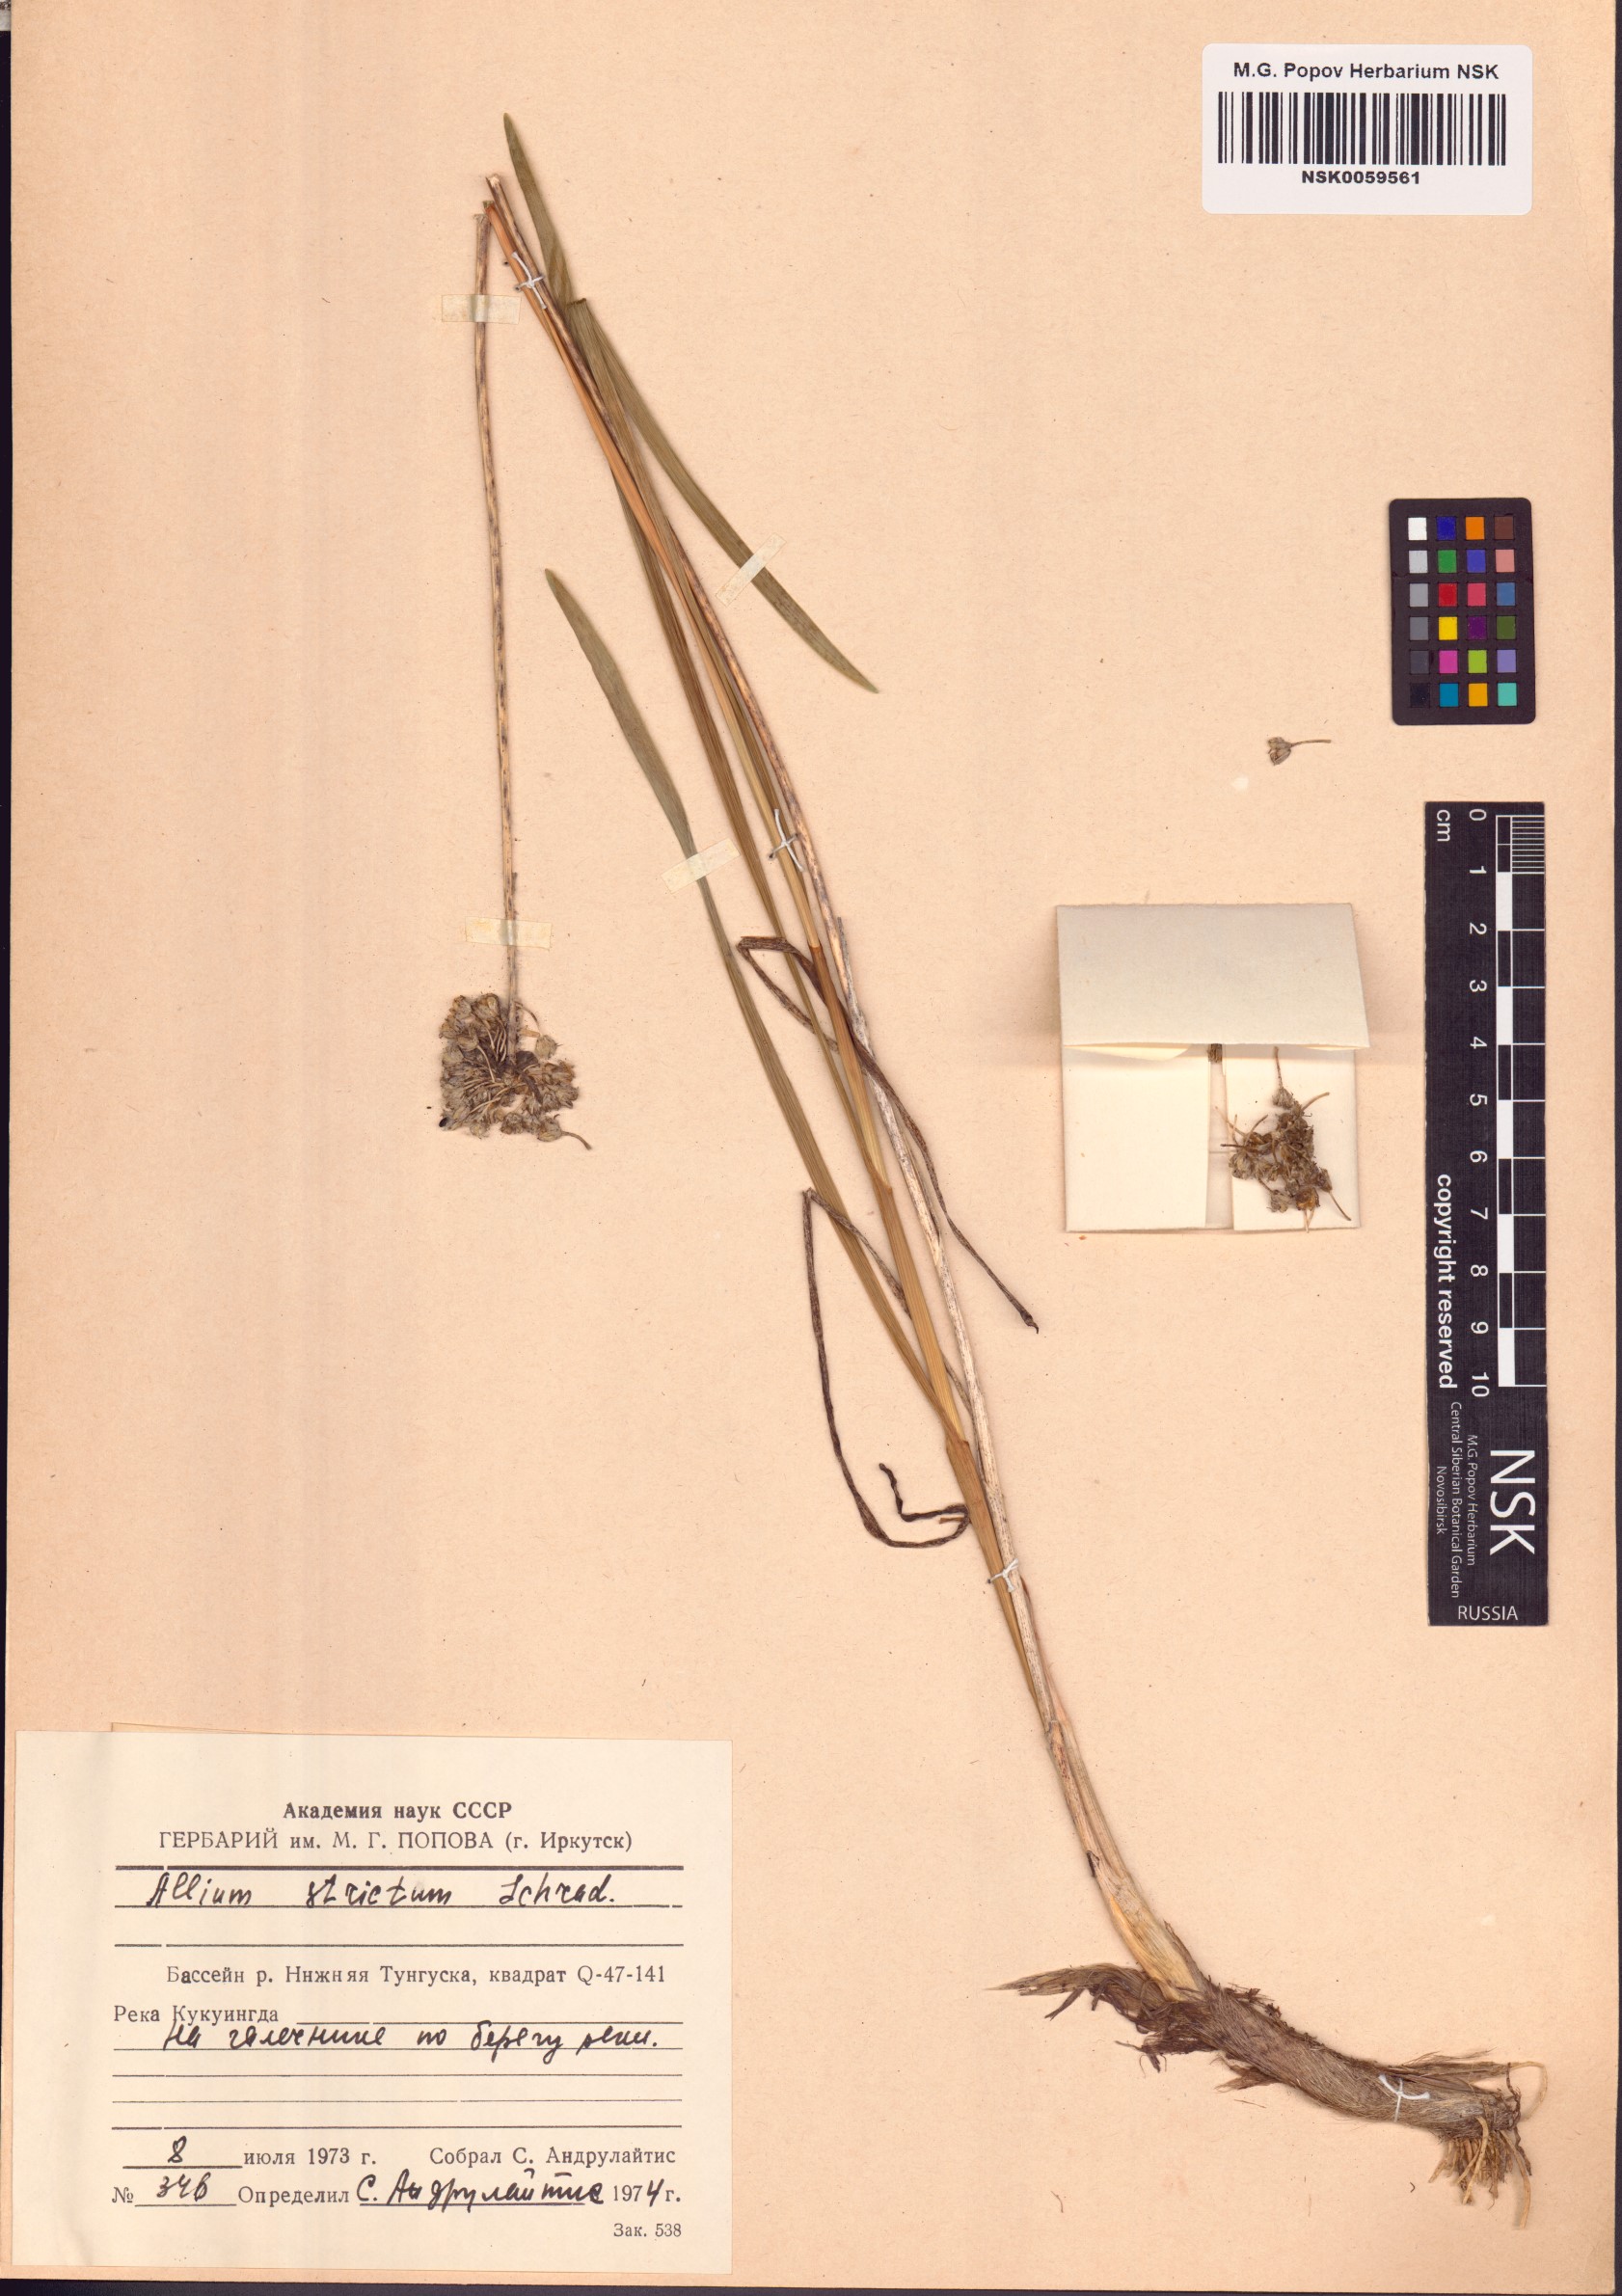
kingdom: Plantae
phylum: Tracheophyta
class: Liliopsida
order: Asparagales
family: Amaryllidaceae
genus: Allium
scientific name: Allium strictum
